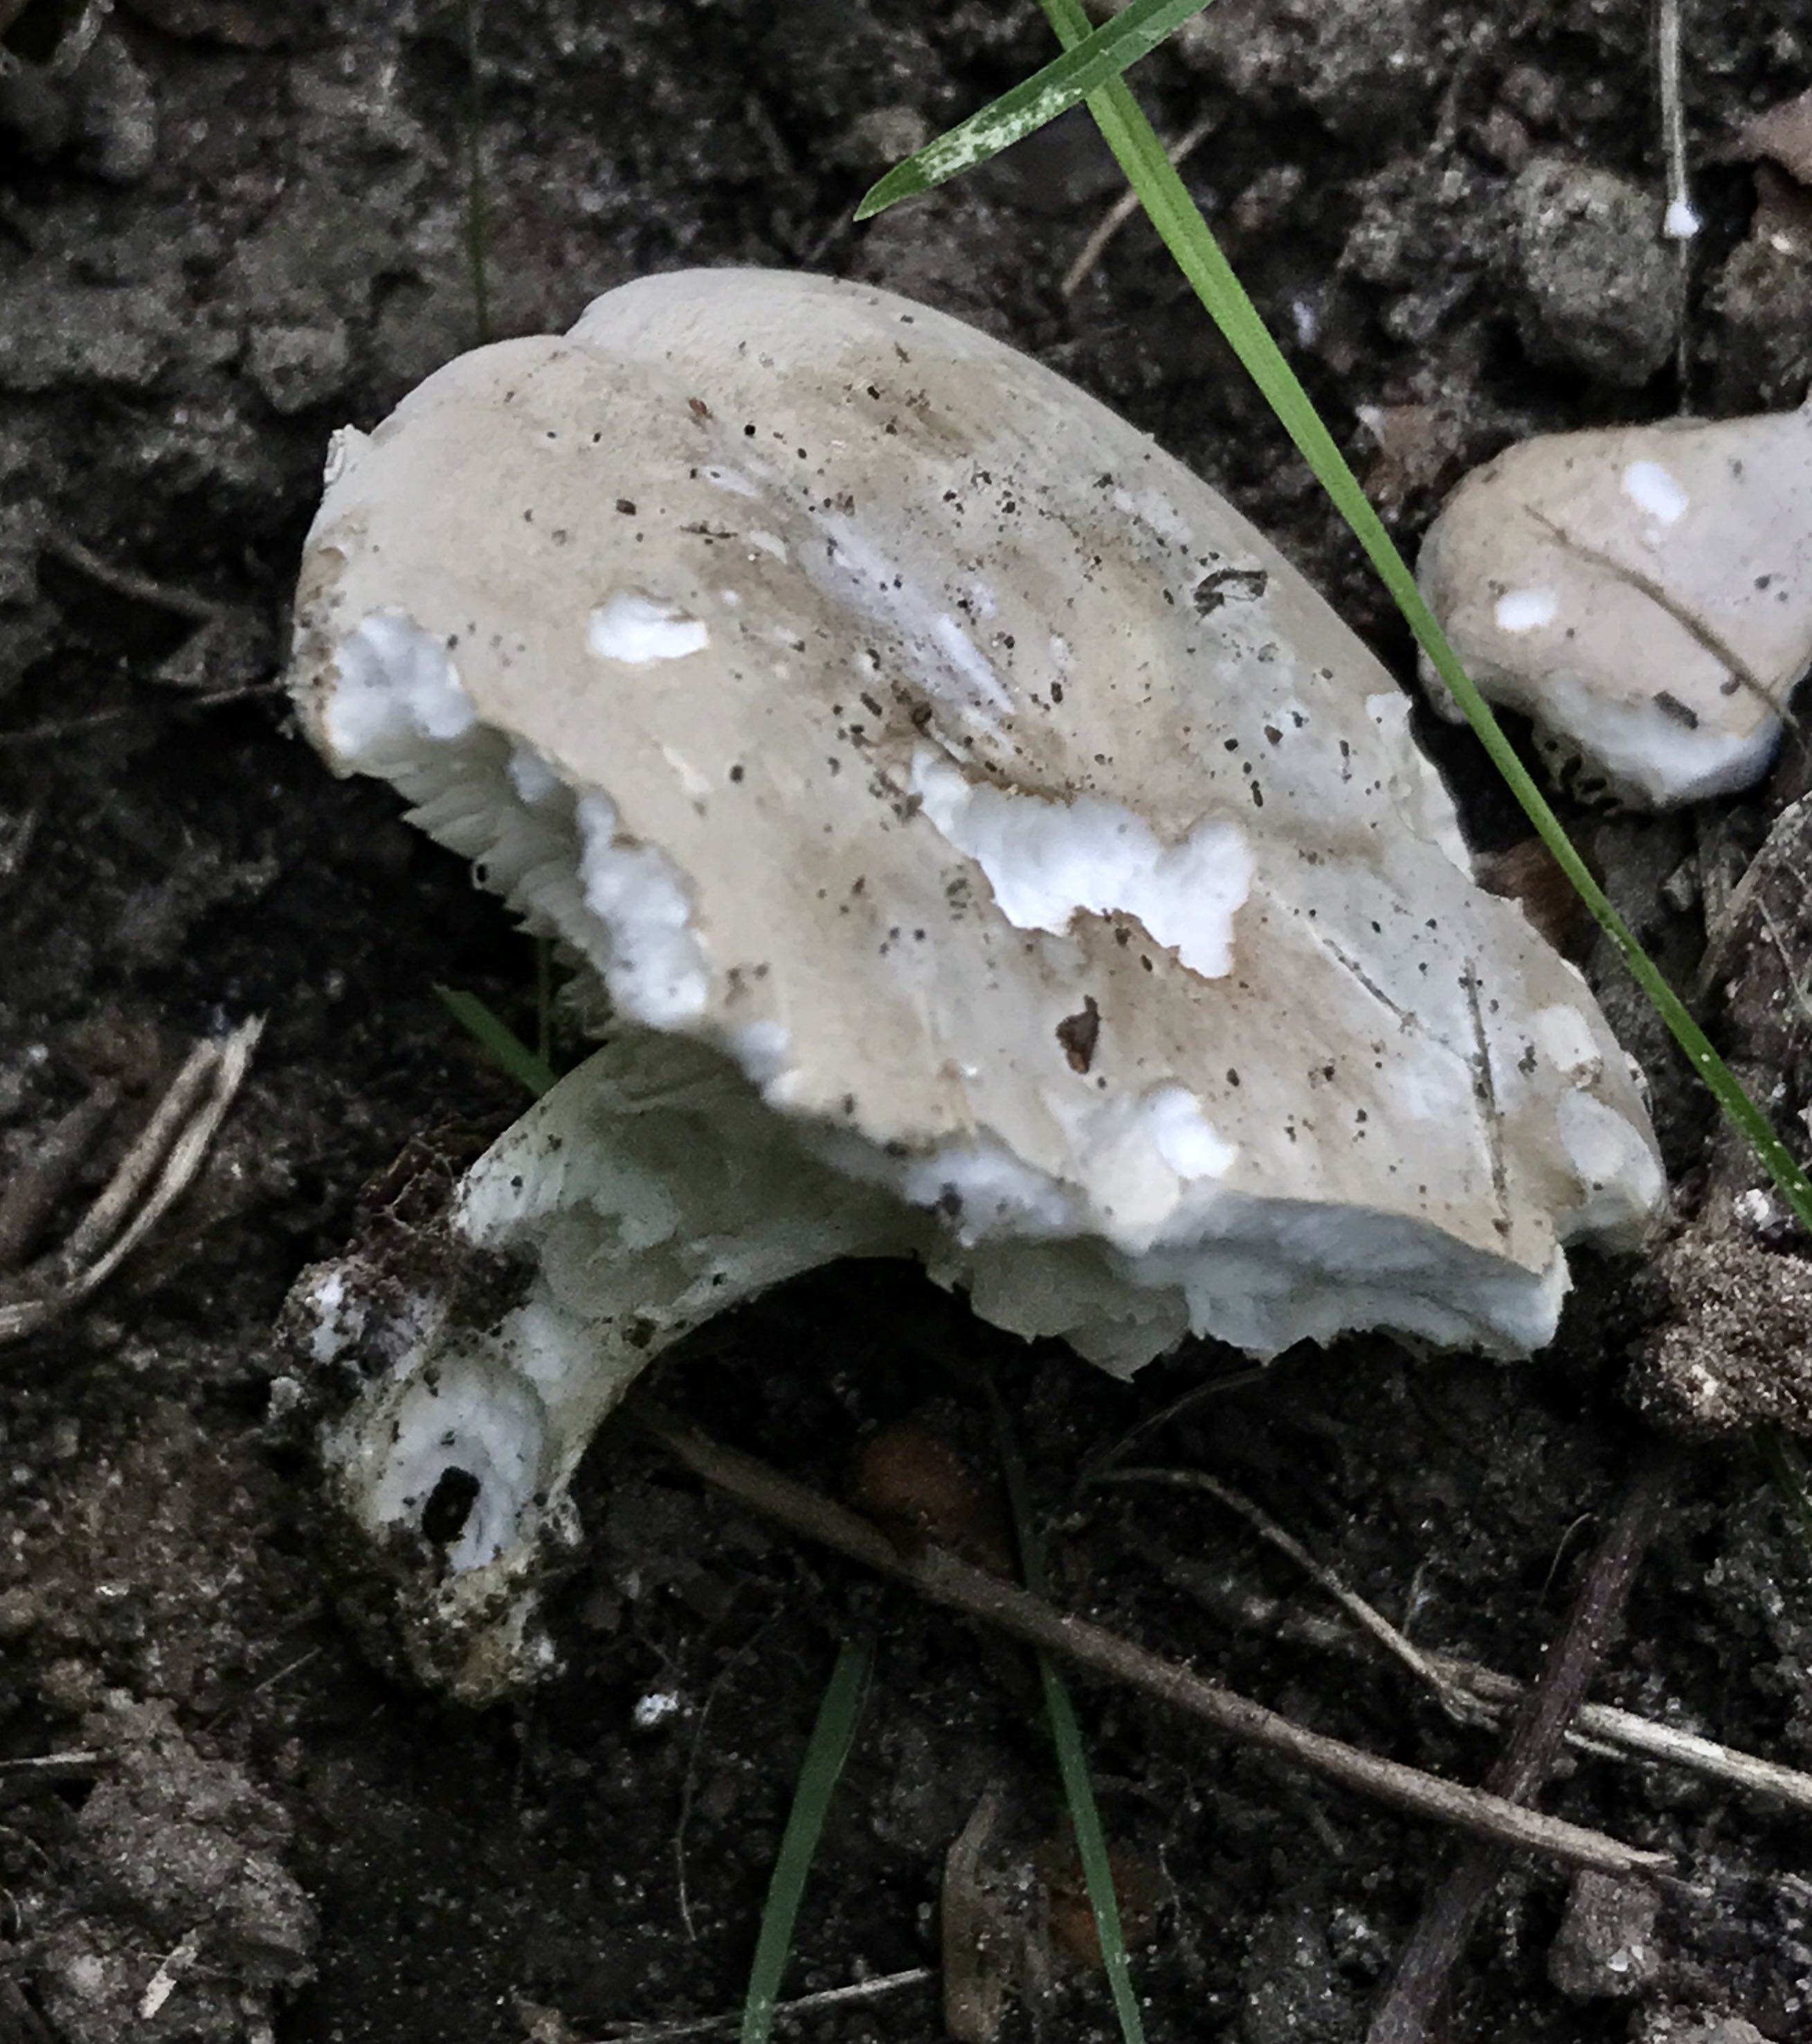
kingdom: Fungi
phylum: Basidiomycota
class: Agaricomycetes
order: Agaricales
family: Entolomataceae
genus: Clitopilus
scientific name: Clitopilus prunulus
